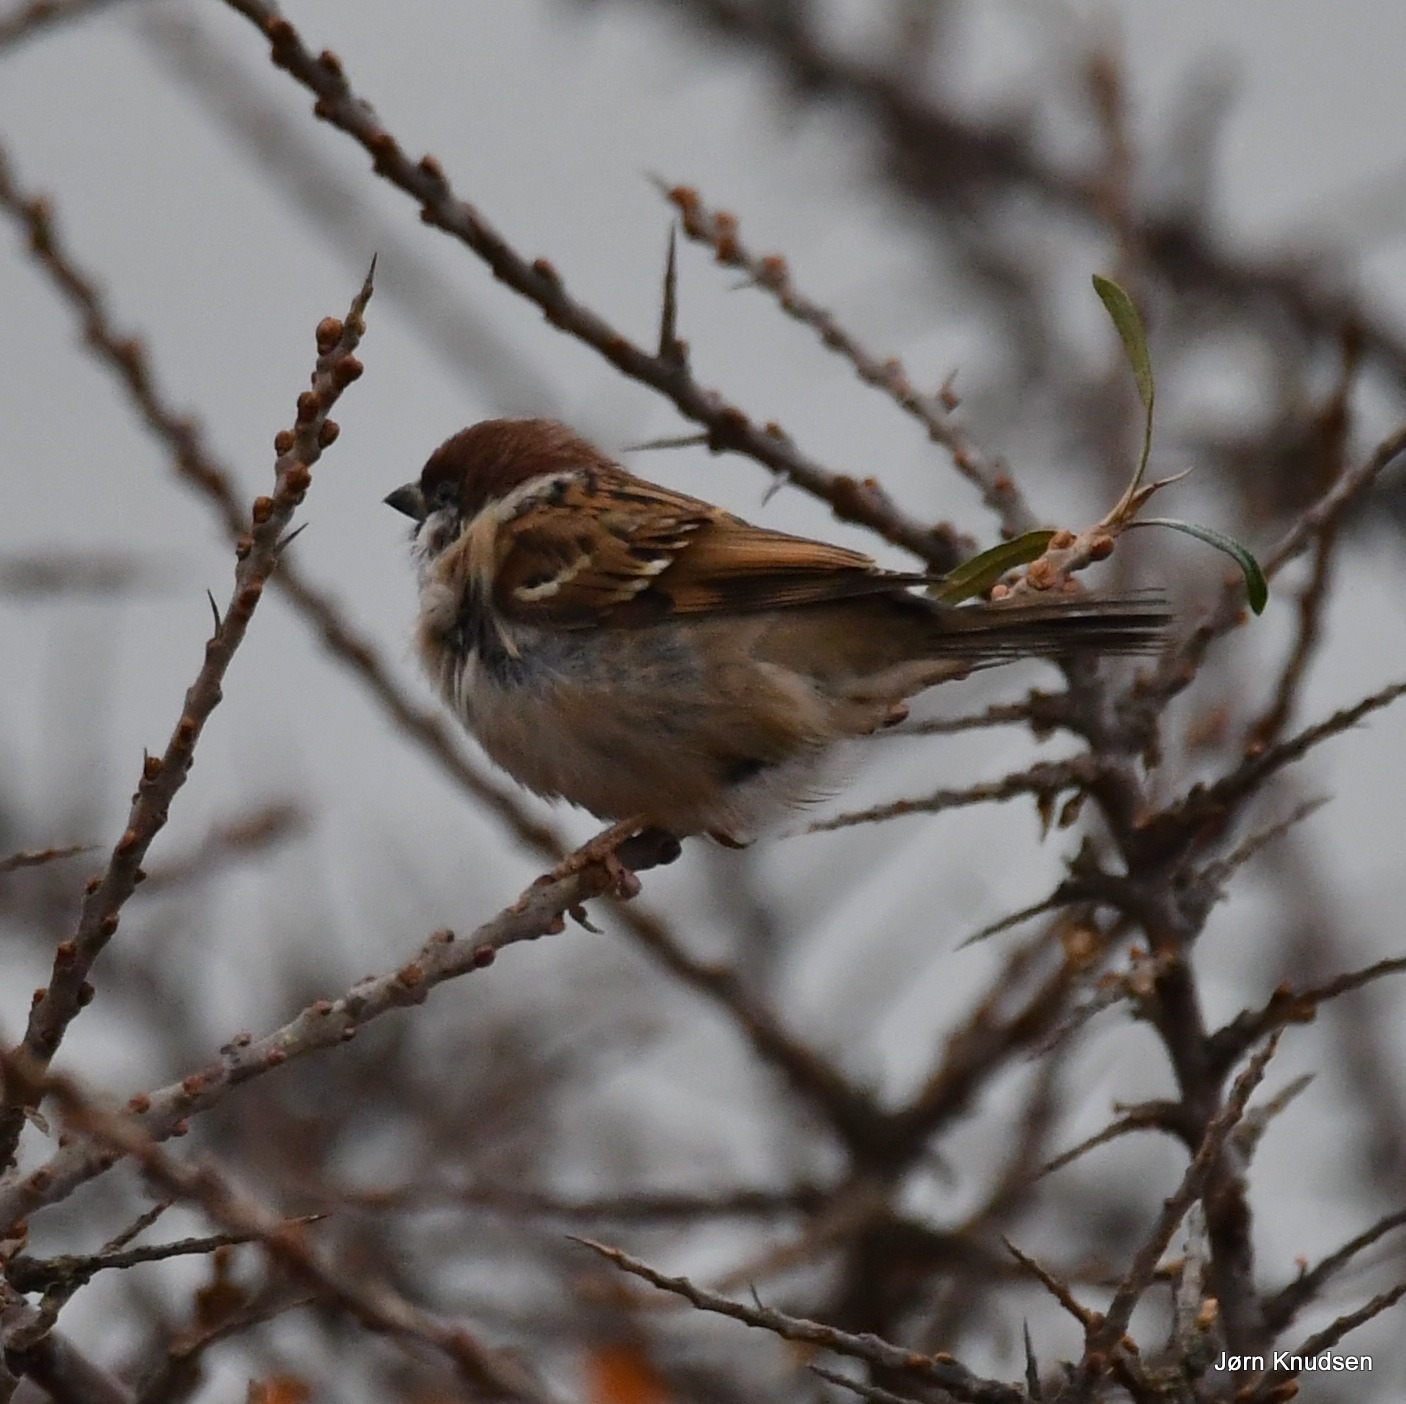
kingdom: Animalia
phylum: Chordata
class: Aves
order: Passeriformes
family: Passeridae
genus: Passer
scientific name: Passer montanus
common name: Skovspurv
